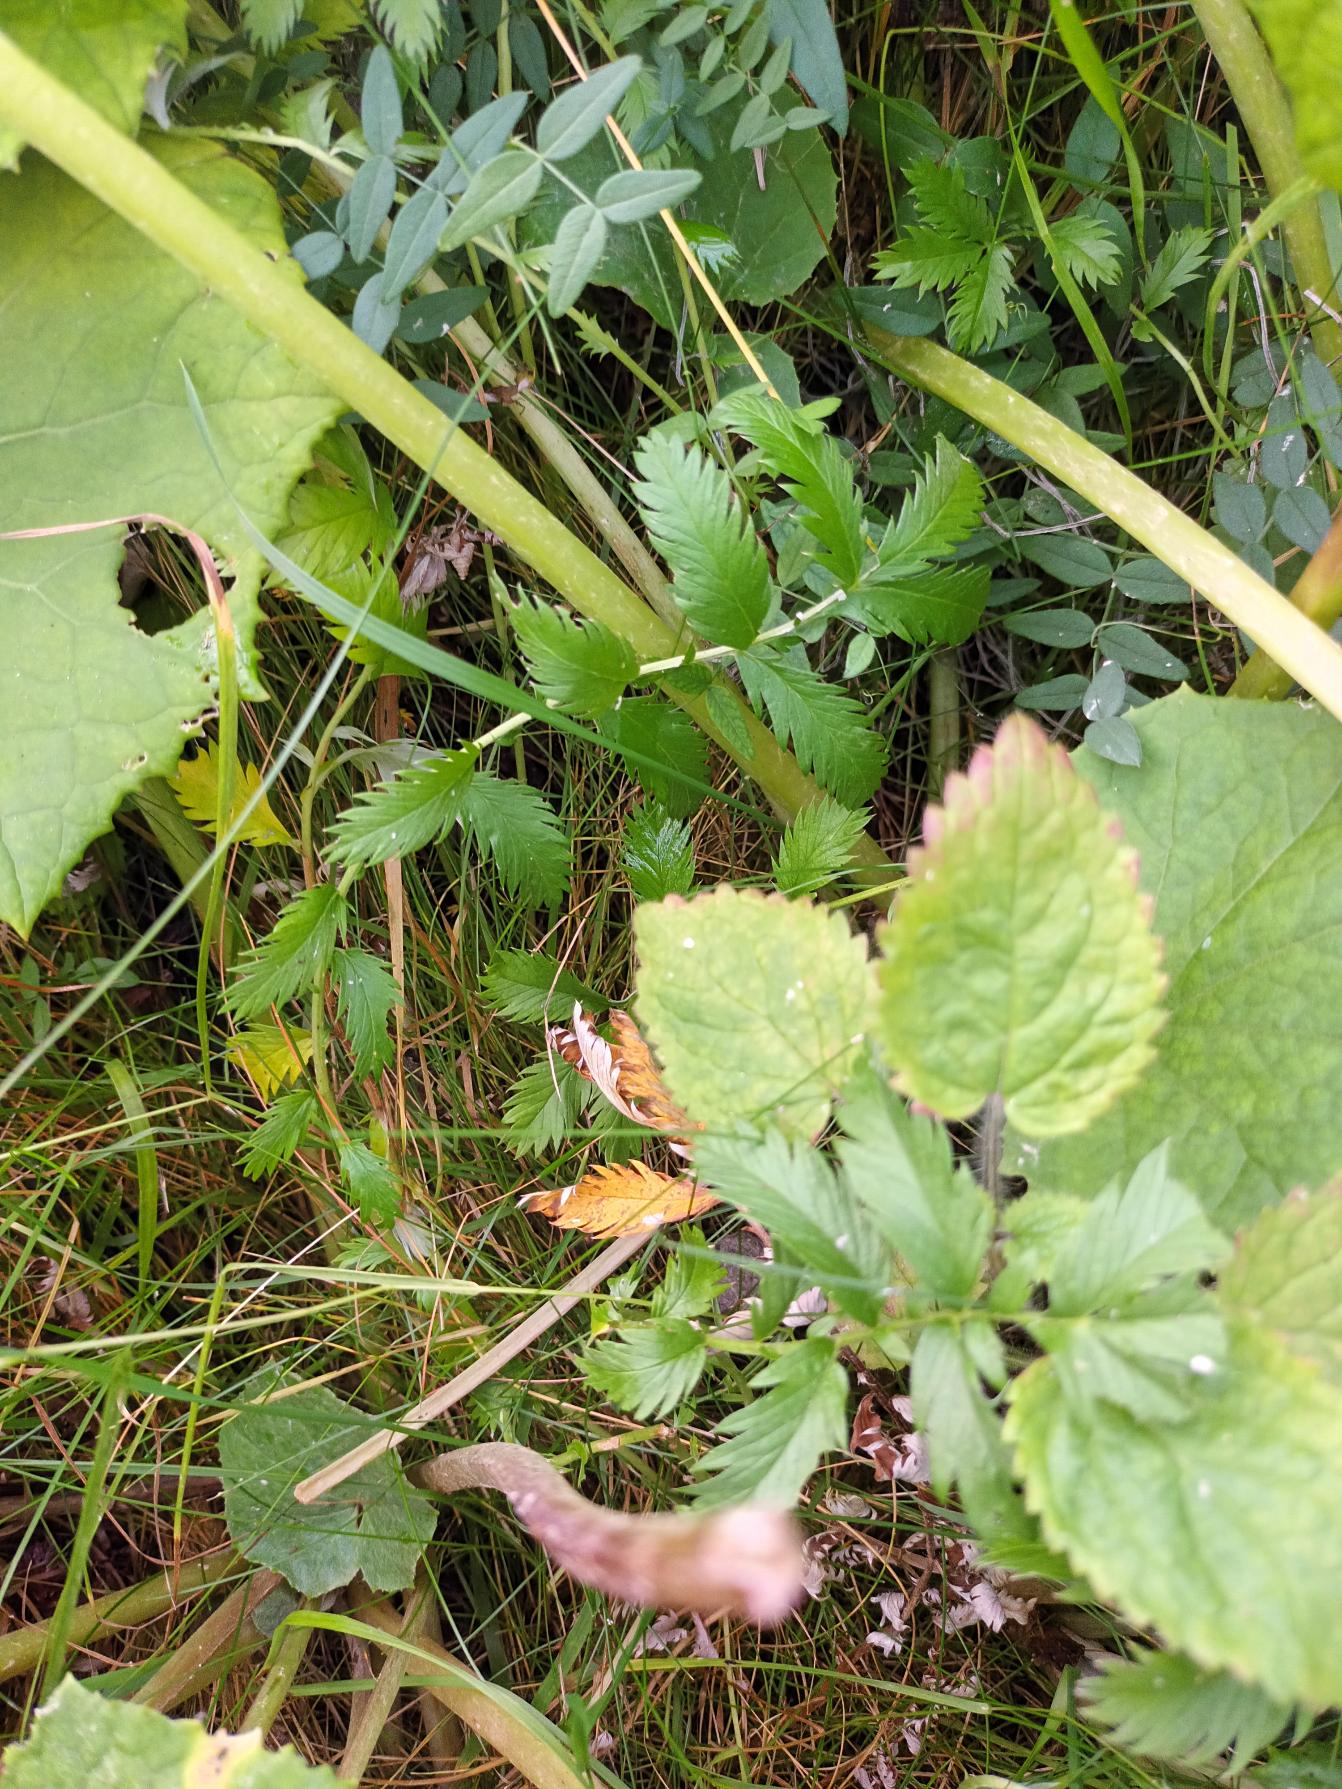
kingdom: Plantae
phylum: Tracheophyta
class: Magnoliopsida
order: Rosales
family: Rosaceae
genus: Argentina
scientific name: Argentina anserina
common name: Gåsepotentil
